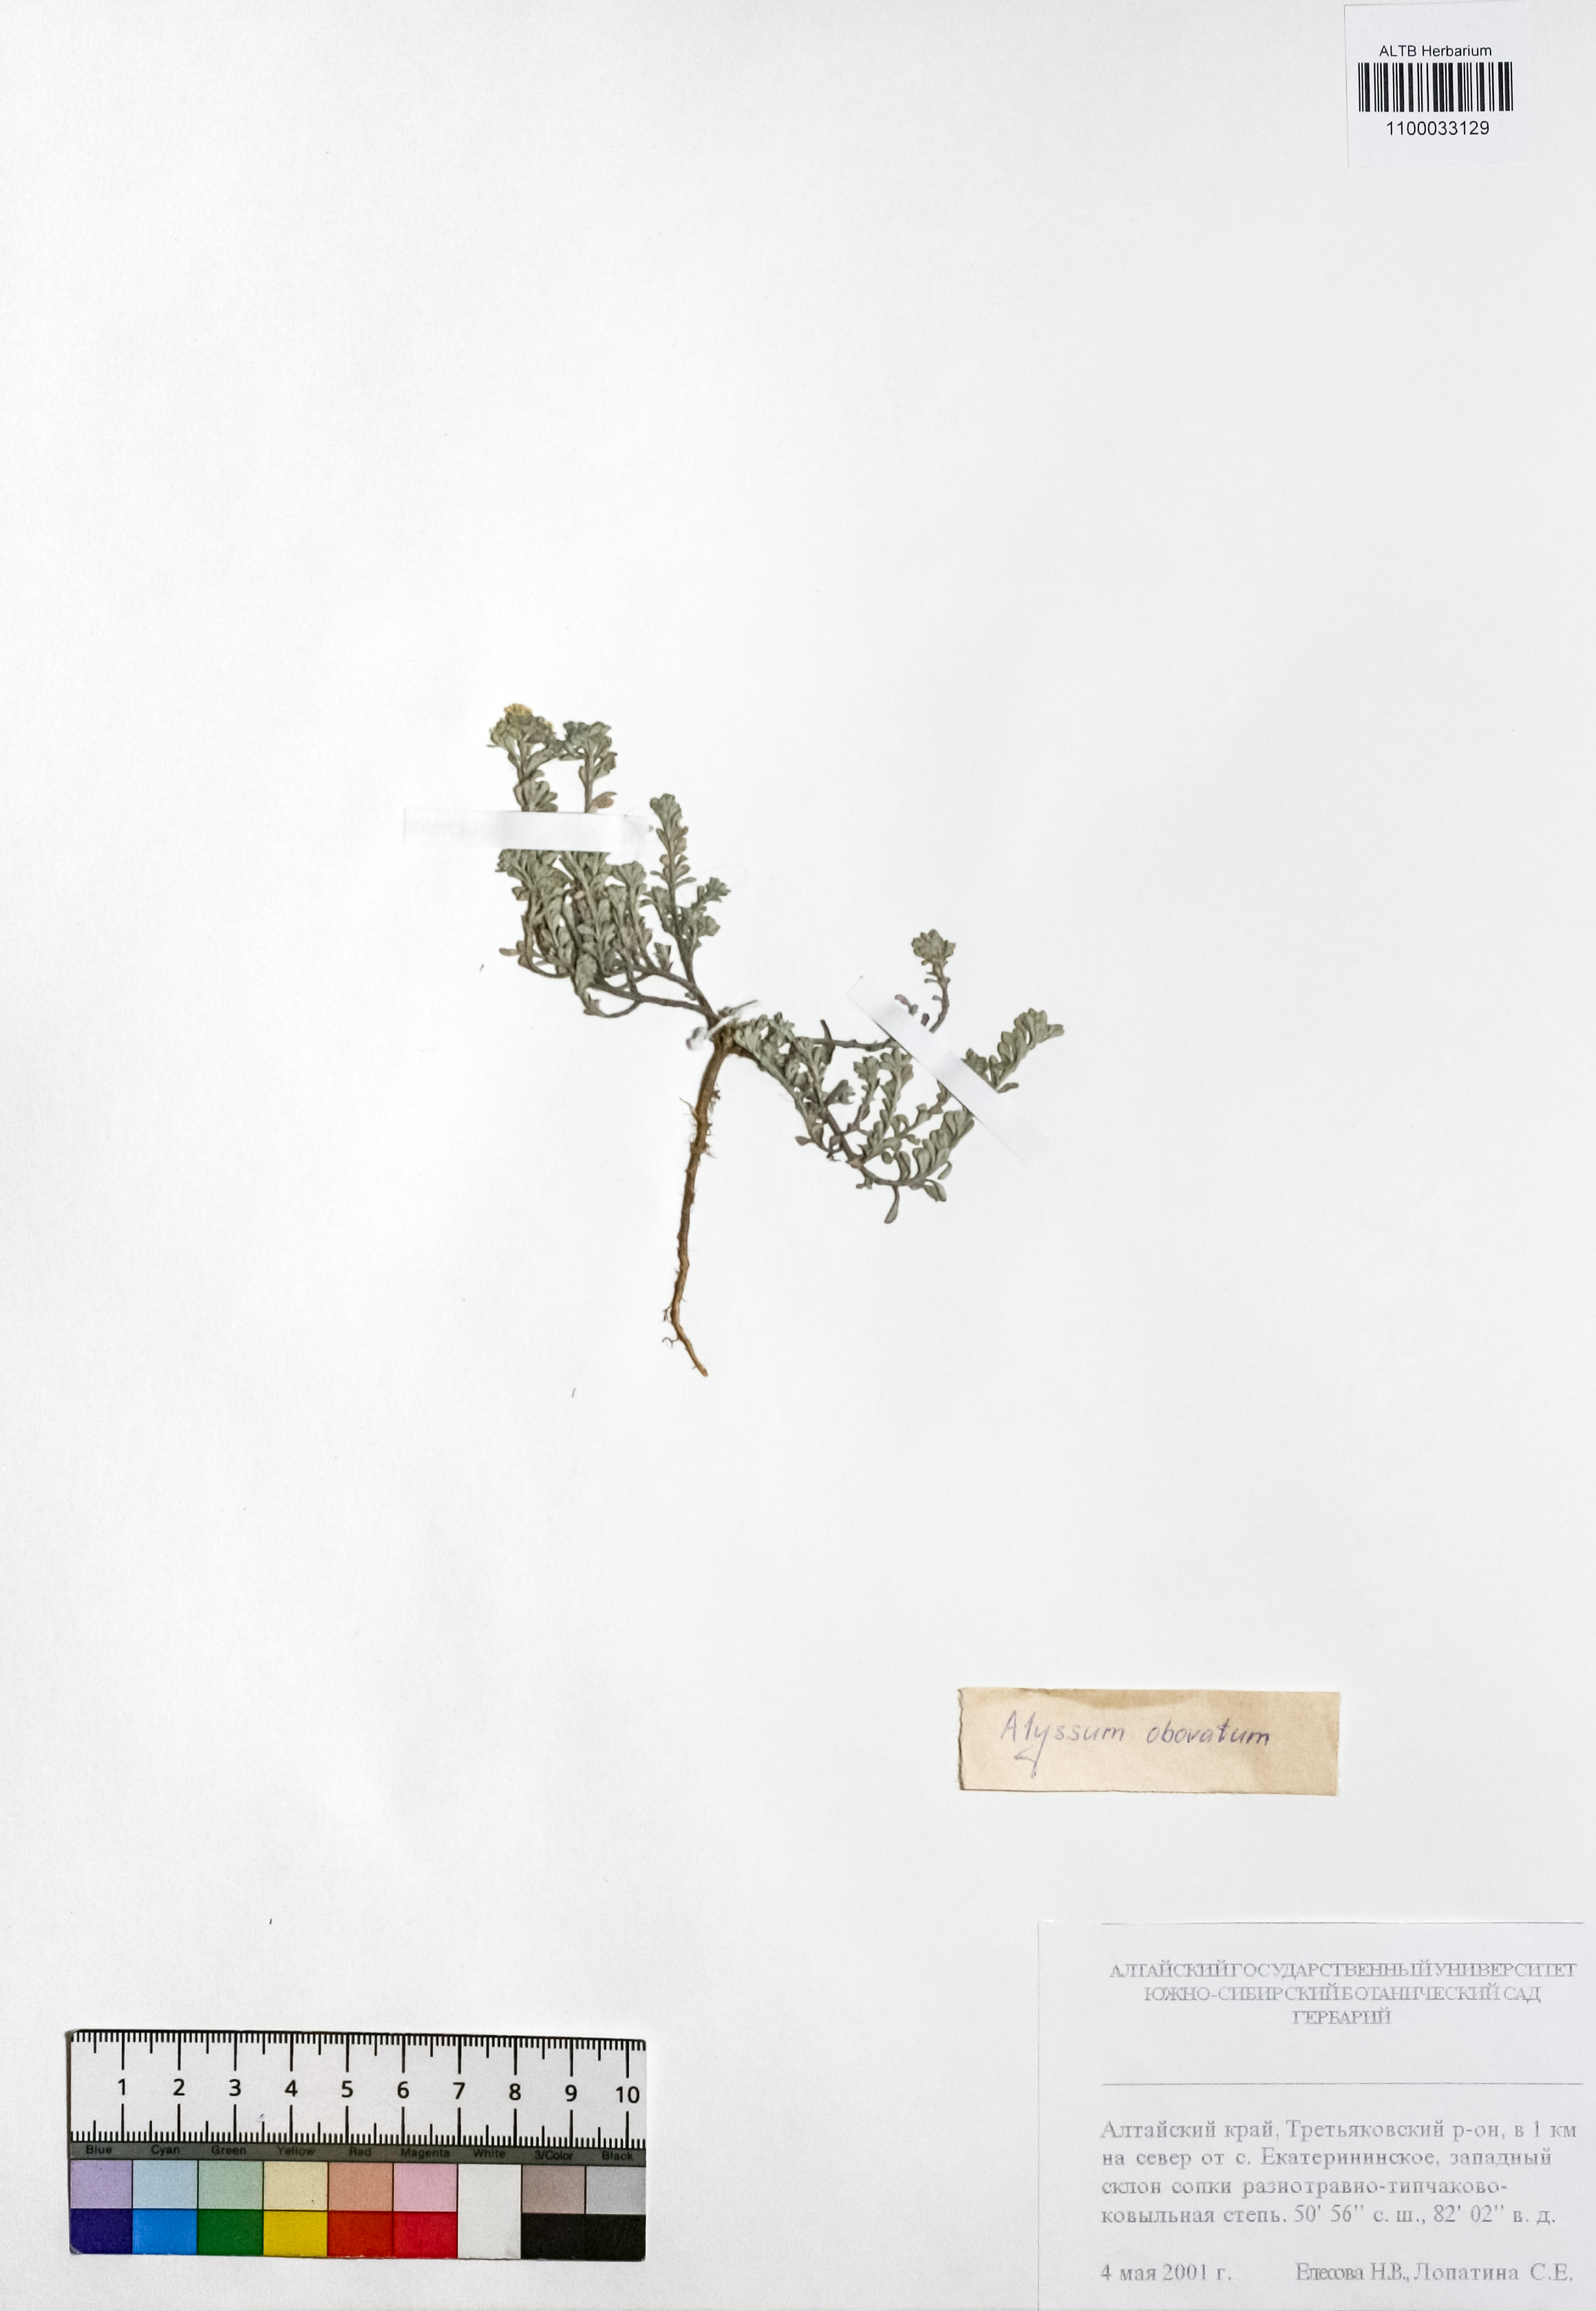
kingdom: Plantae
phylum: Tracheophyta
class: Magnoliopsida
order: Brassicales
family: Brassicaceae
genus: Odontarrhena
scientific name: Odontarrhena obovata
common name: American alyssum
